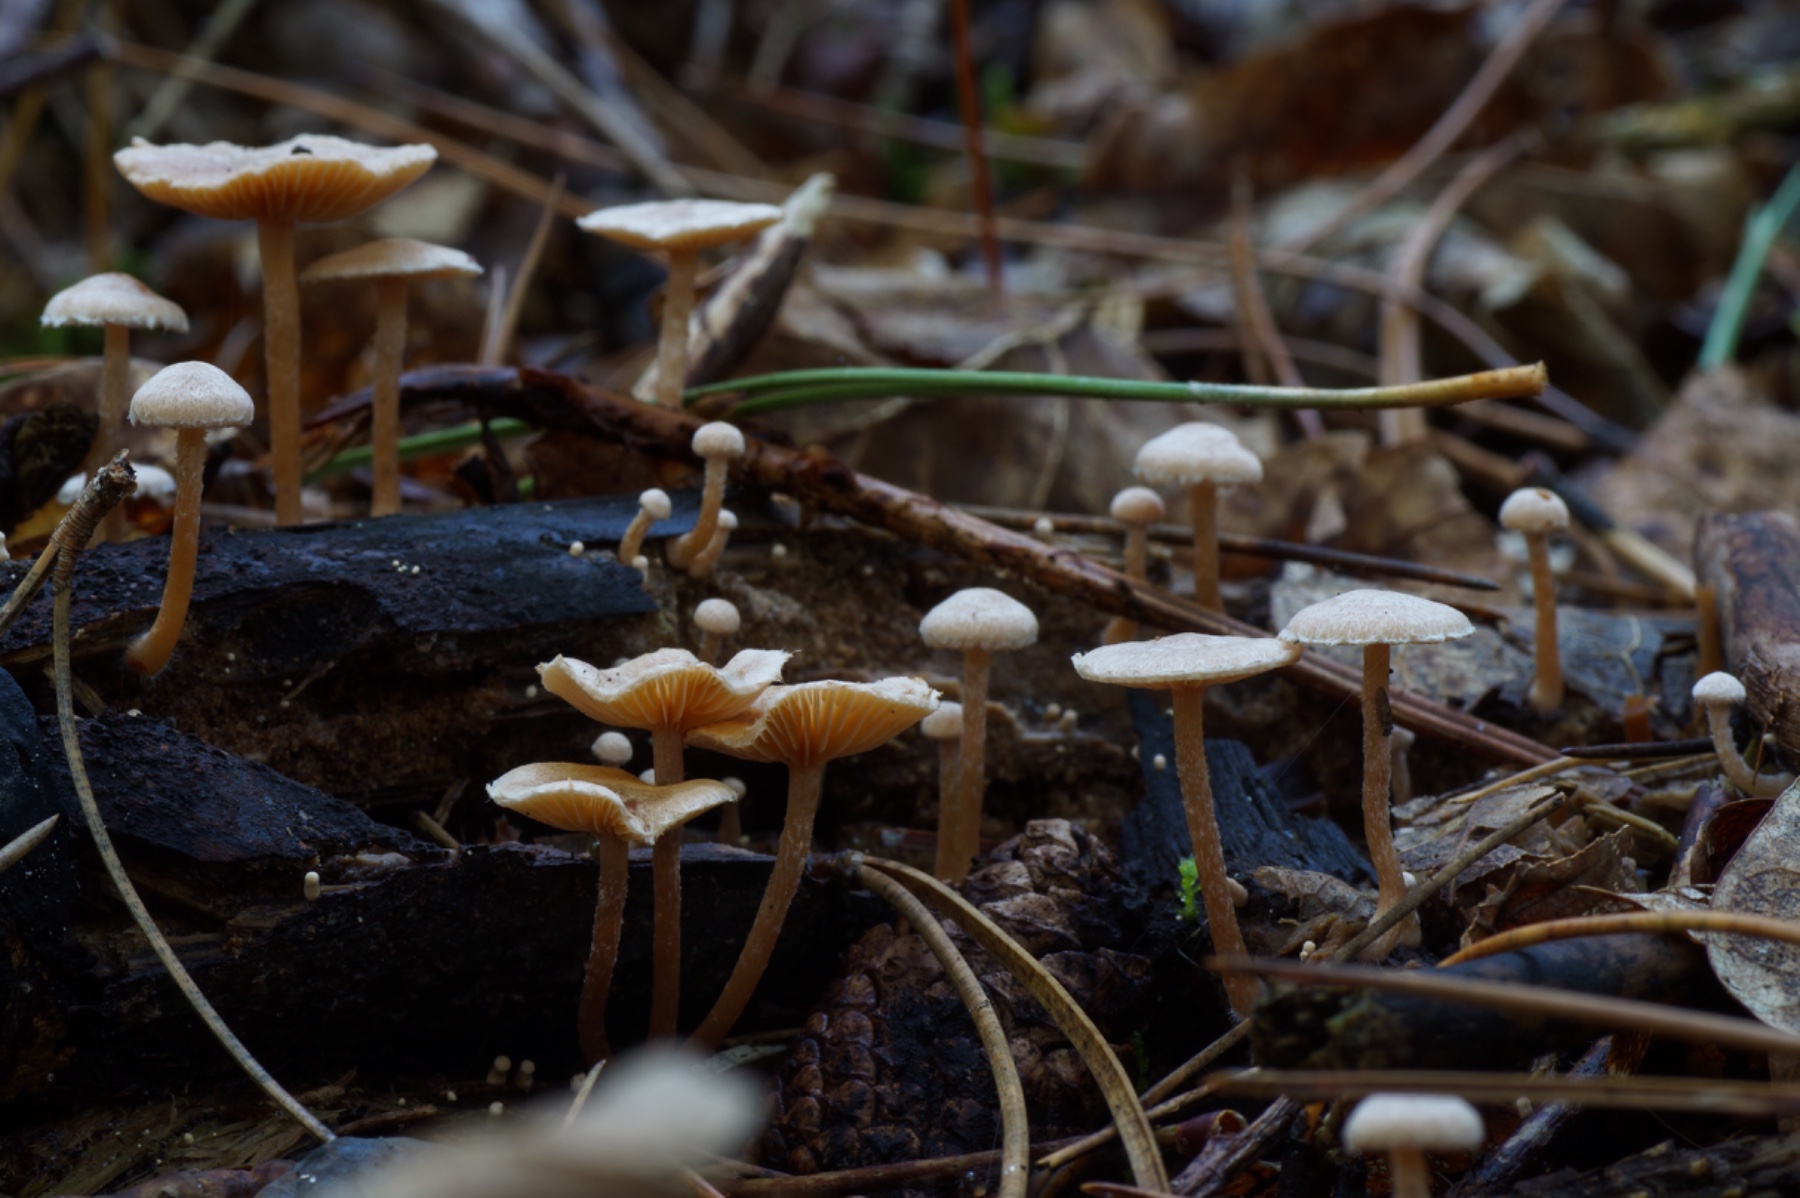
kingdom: Fungi
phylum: Basidiomycota
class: Agaricomycetes
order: Agaricales
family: Tubariaceae
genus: Tubaria
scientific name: Tubaria conspersa
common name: bleg fnughat
